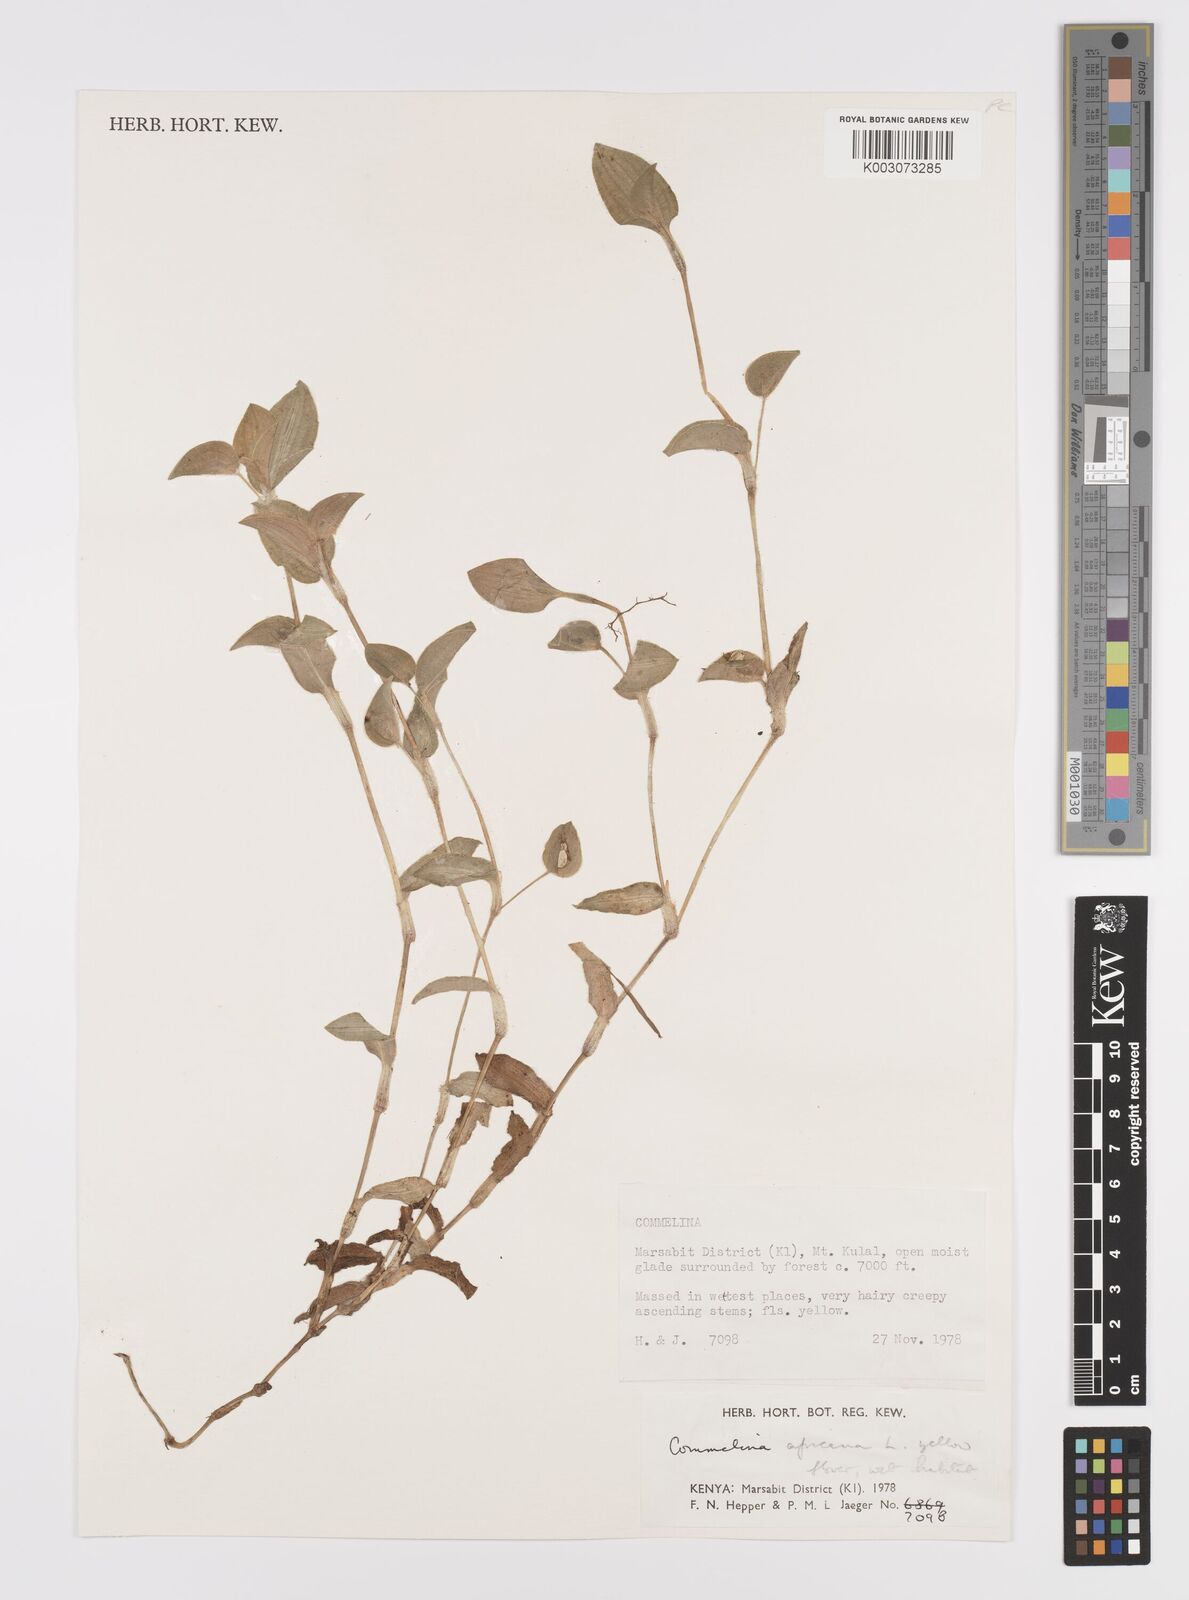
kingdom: Plantae
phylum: Tracheophyta
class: Liliopsida
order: Commelinales
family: Commelinaceae
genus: Commelina
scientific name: Commelina africana
